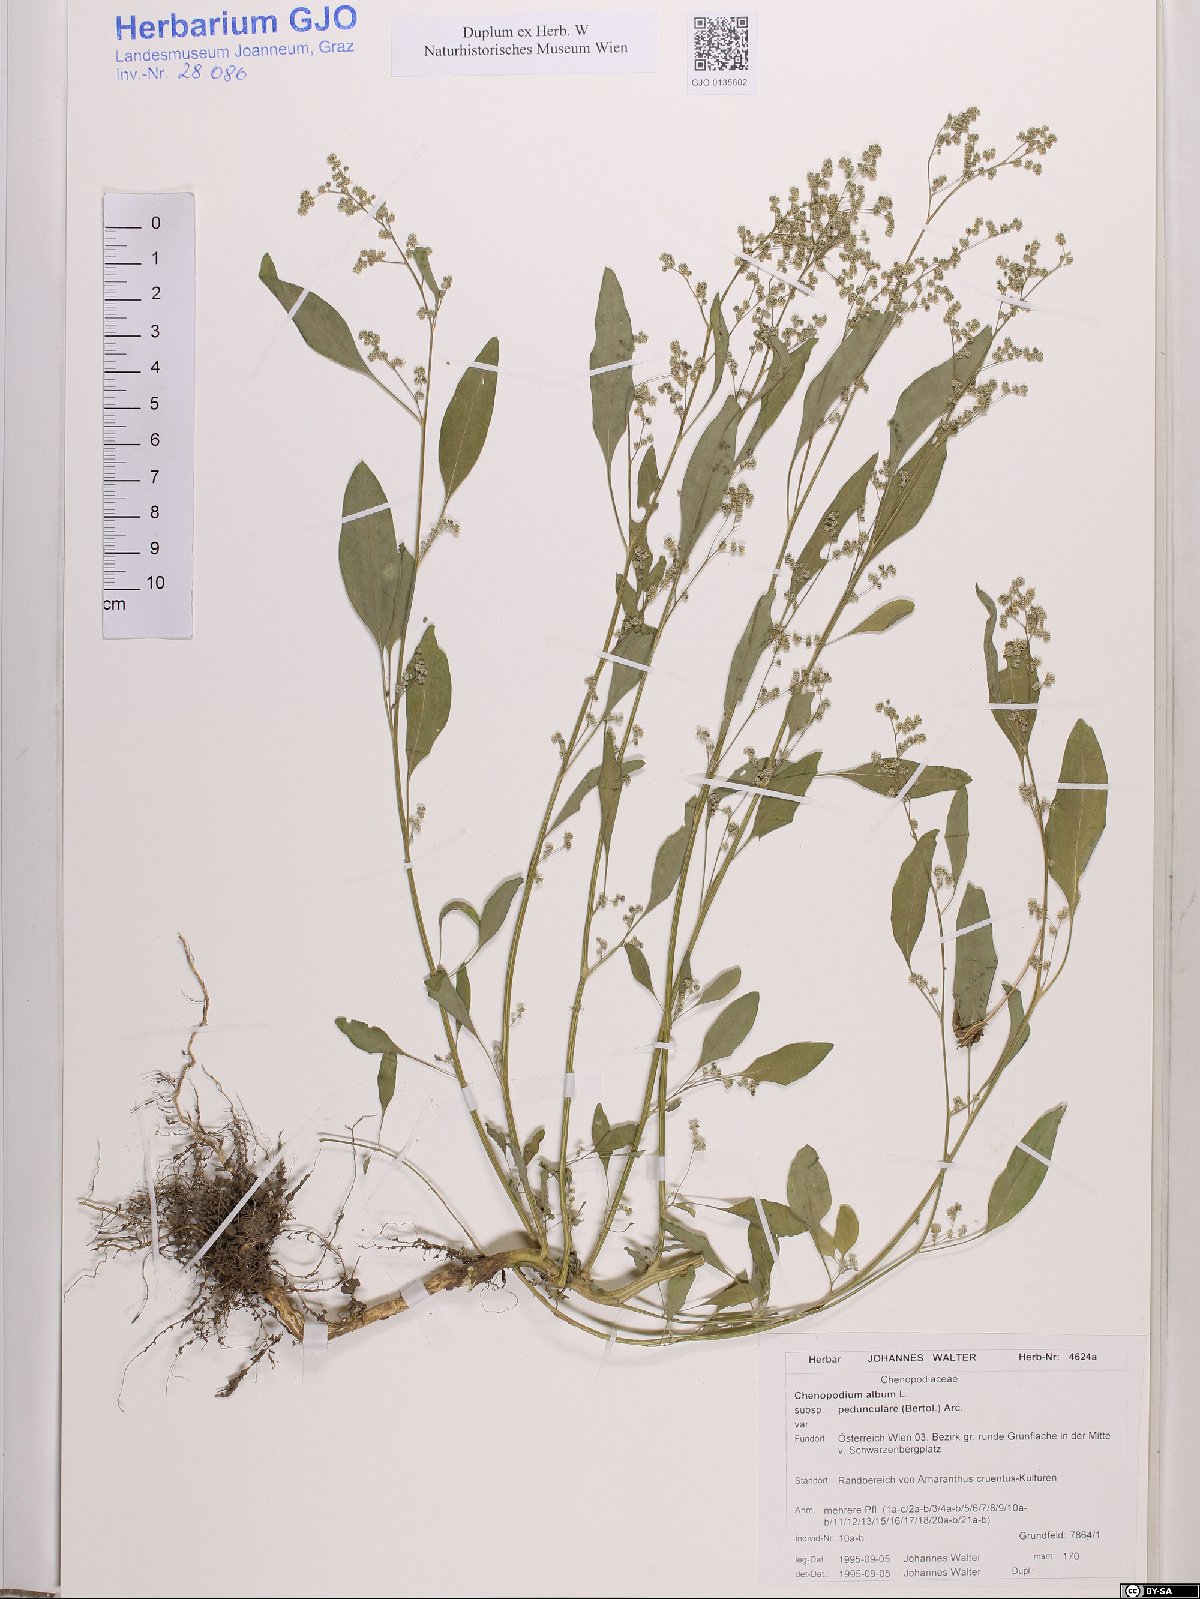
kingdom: Plantae
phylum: Tracheophyta
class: Magnoliopsida
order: Caryophyllales
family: Amaranthaceae
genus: Chenopodium
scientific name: Chenopodium album
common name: Fat-hen
